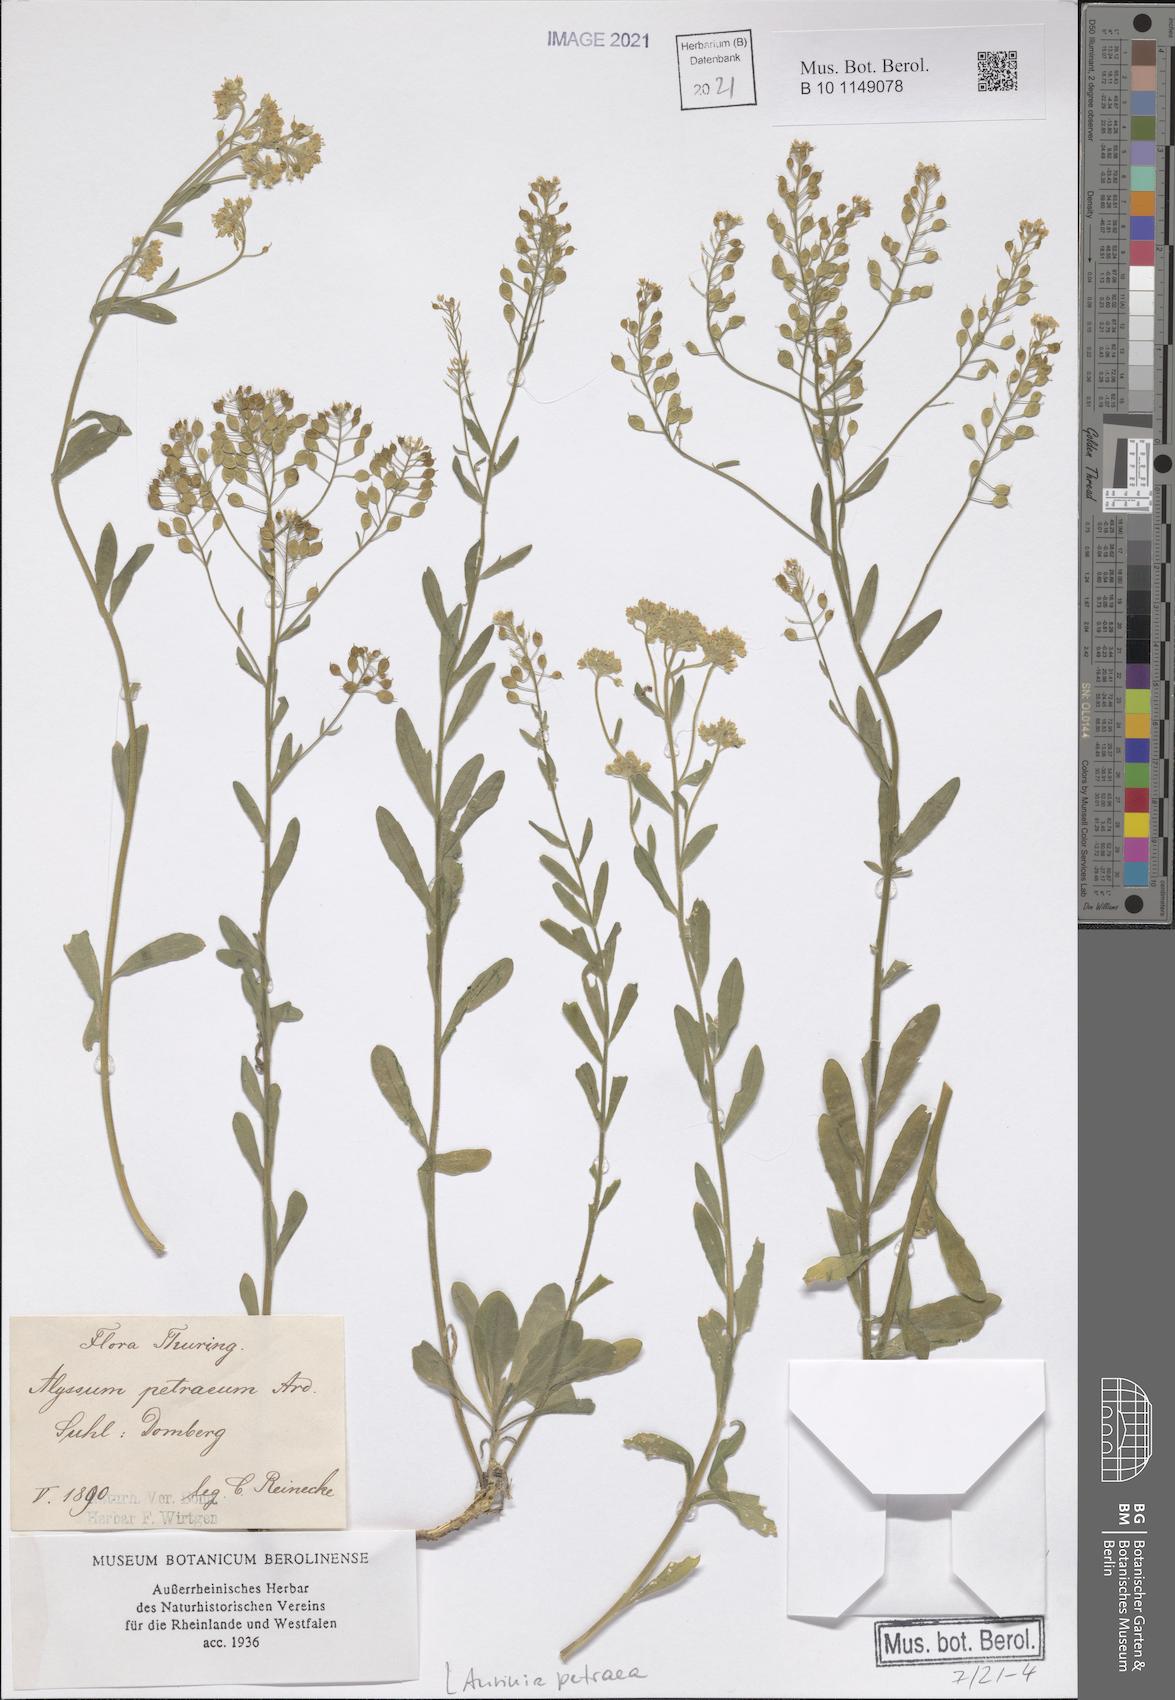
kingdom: Plantae
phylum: Tracheophyta
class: Magnoliopsida
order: Brassicales
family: Brassicaceae
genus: Aurinia
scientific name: Aurinia petraea
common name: Goldentuft
